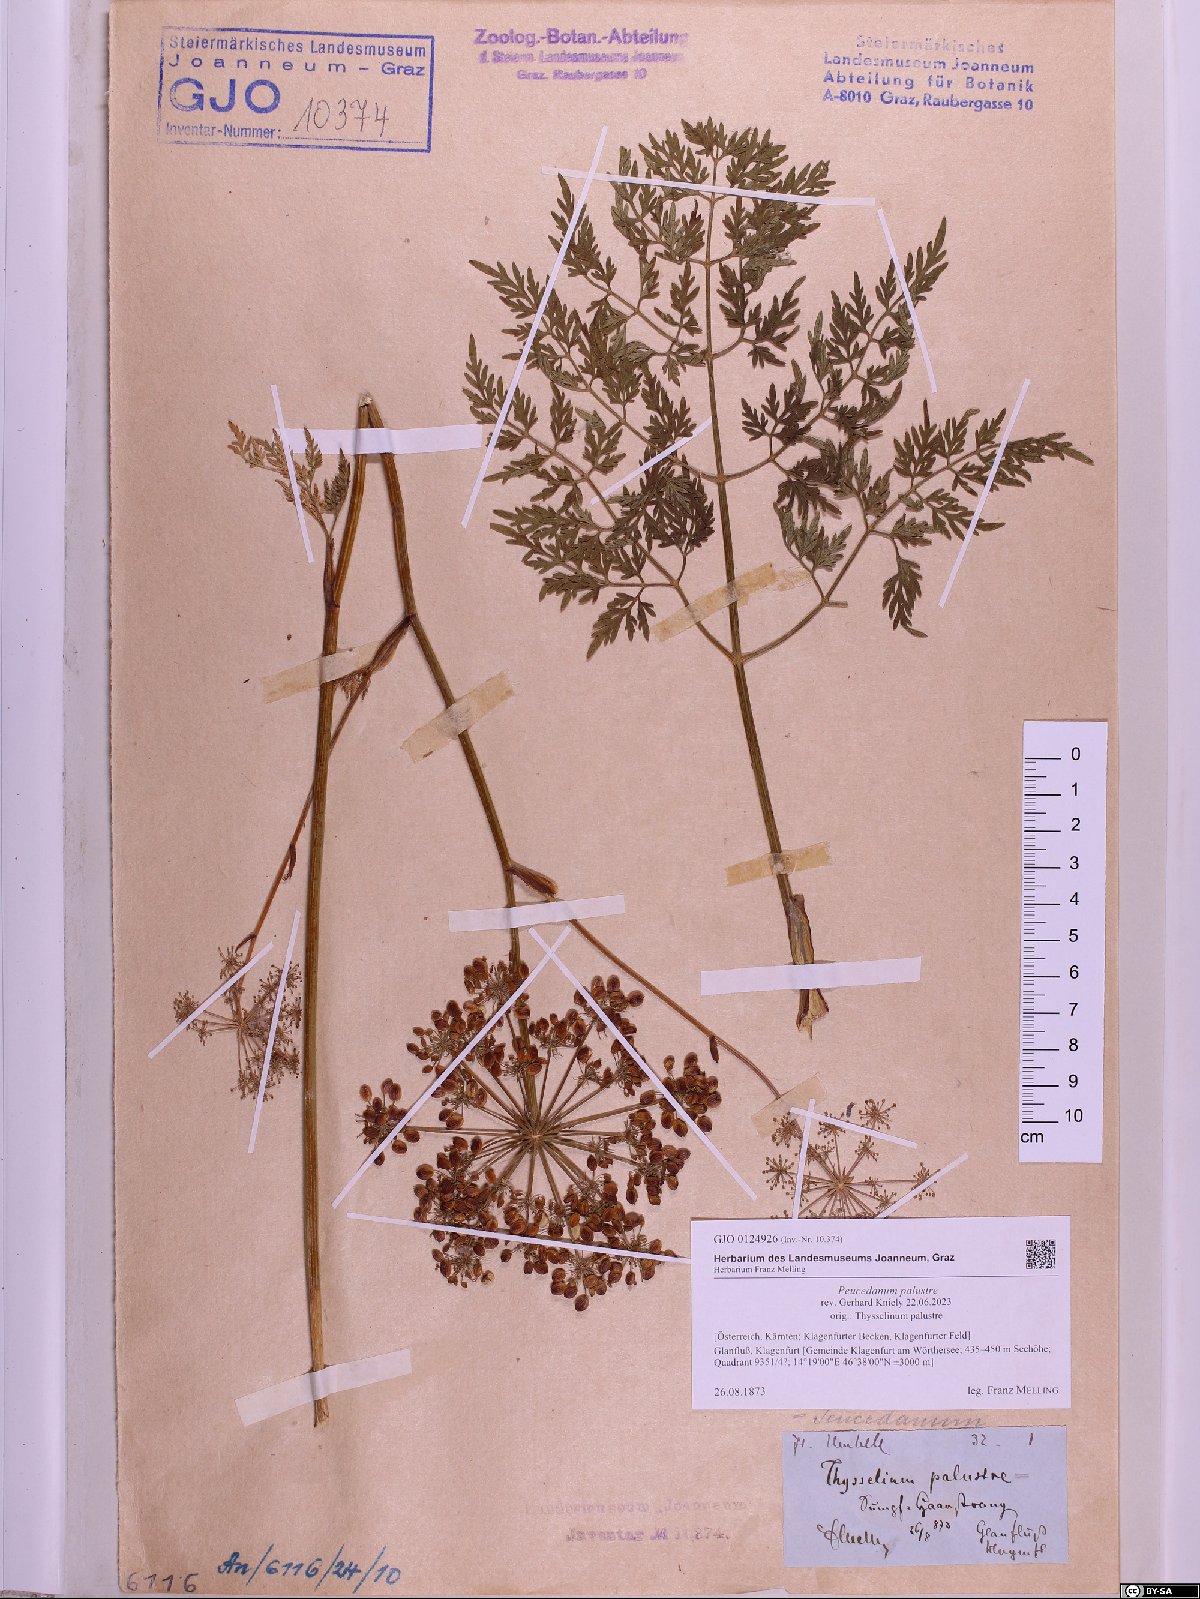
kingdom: Plantae
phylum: Tracheophyta
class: Magnoliopsida
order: Apiales
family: Apiaceae
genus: Thysselinum
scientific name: Thysselinum palustre
